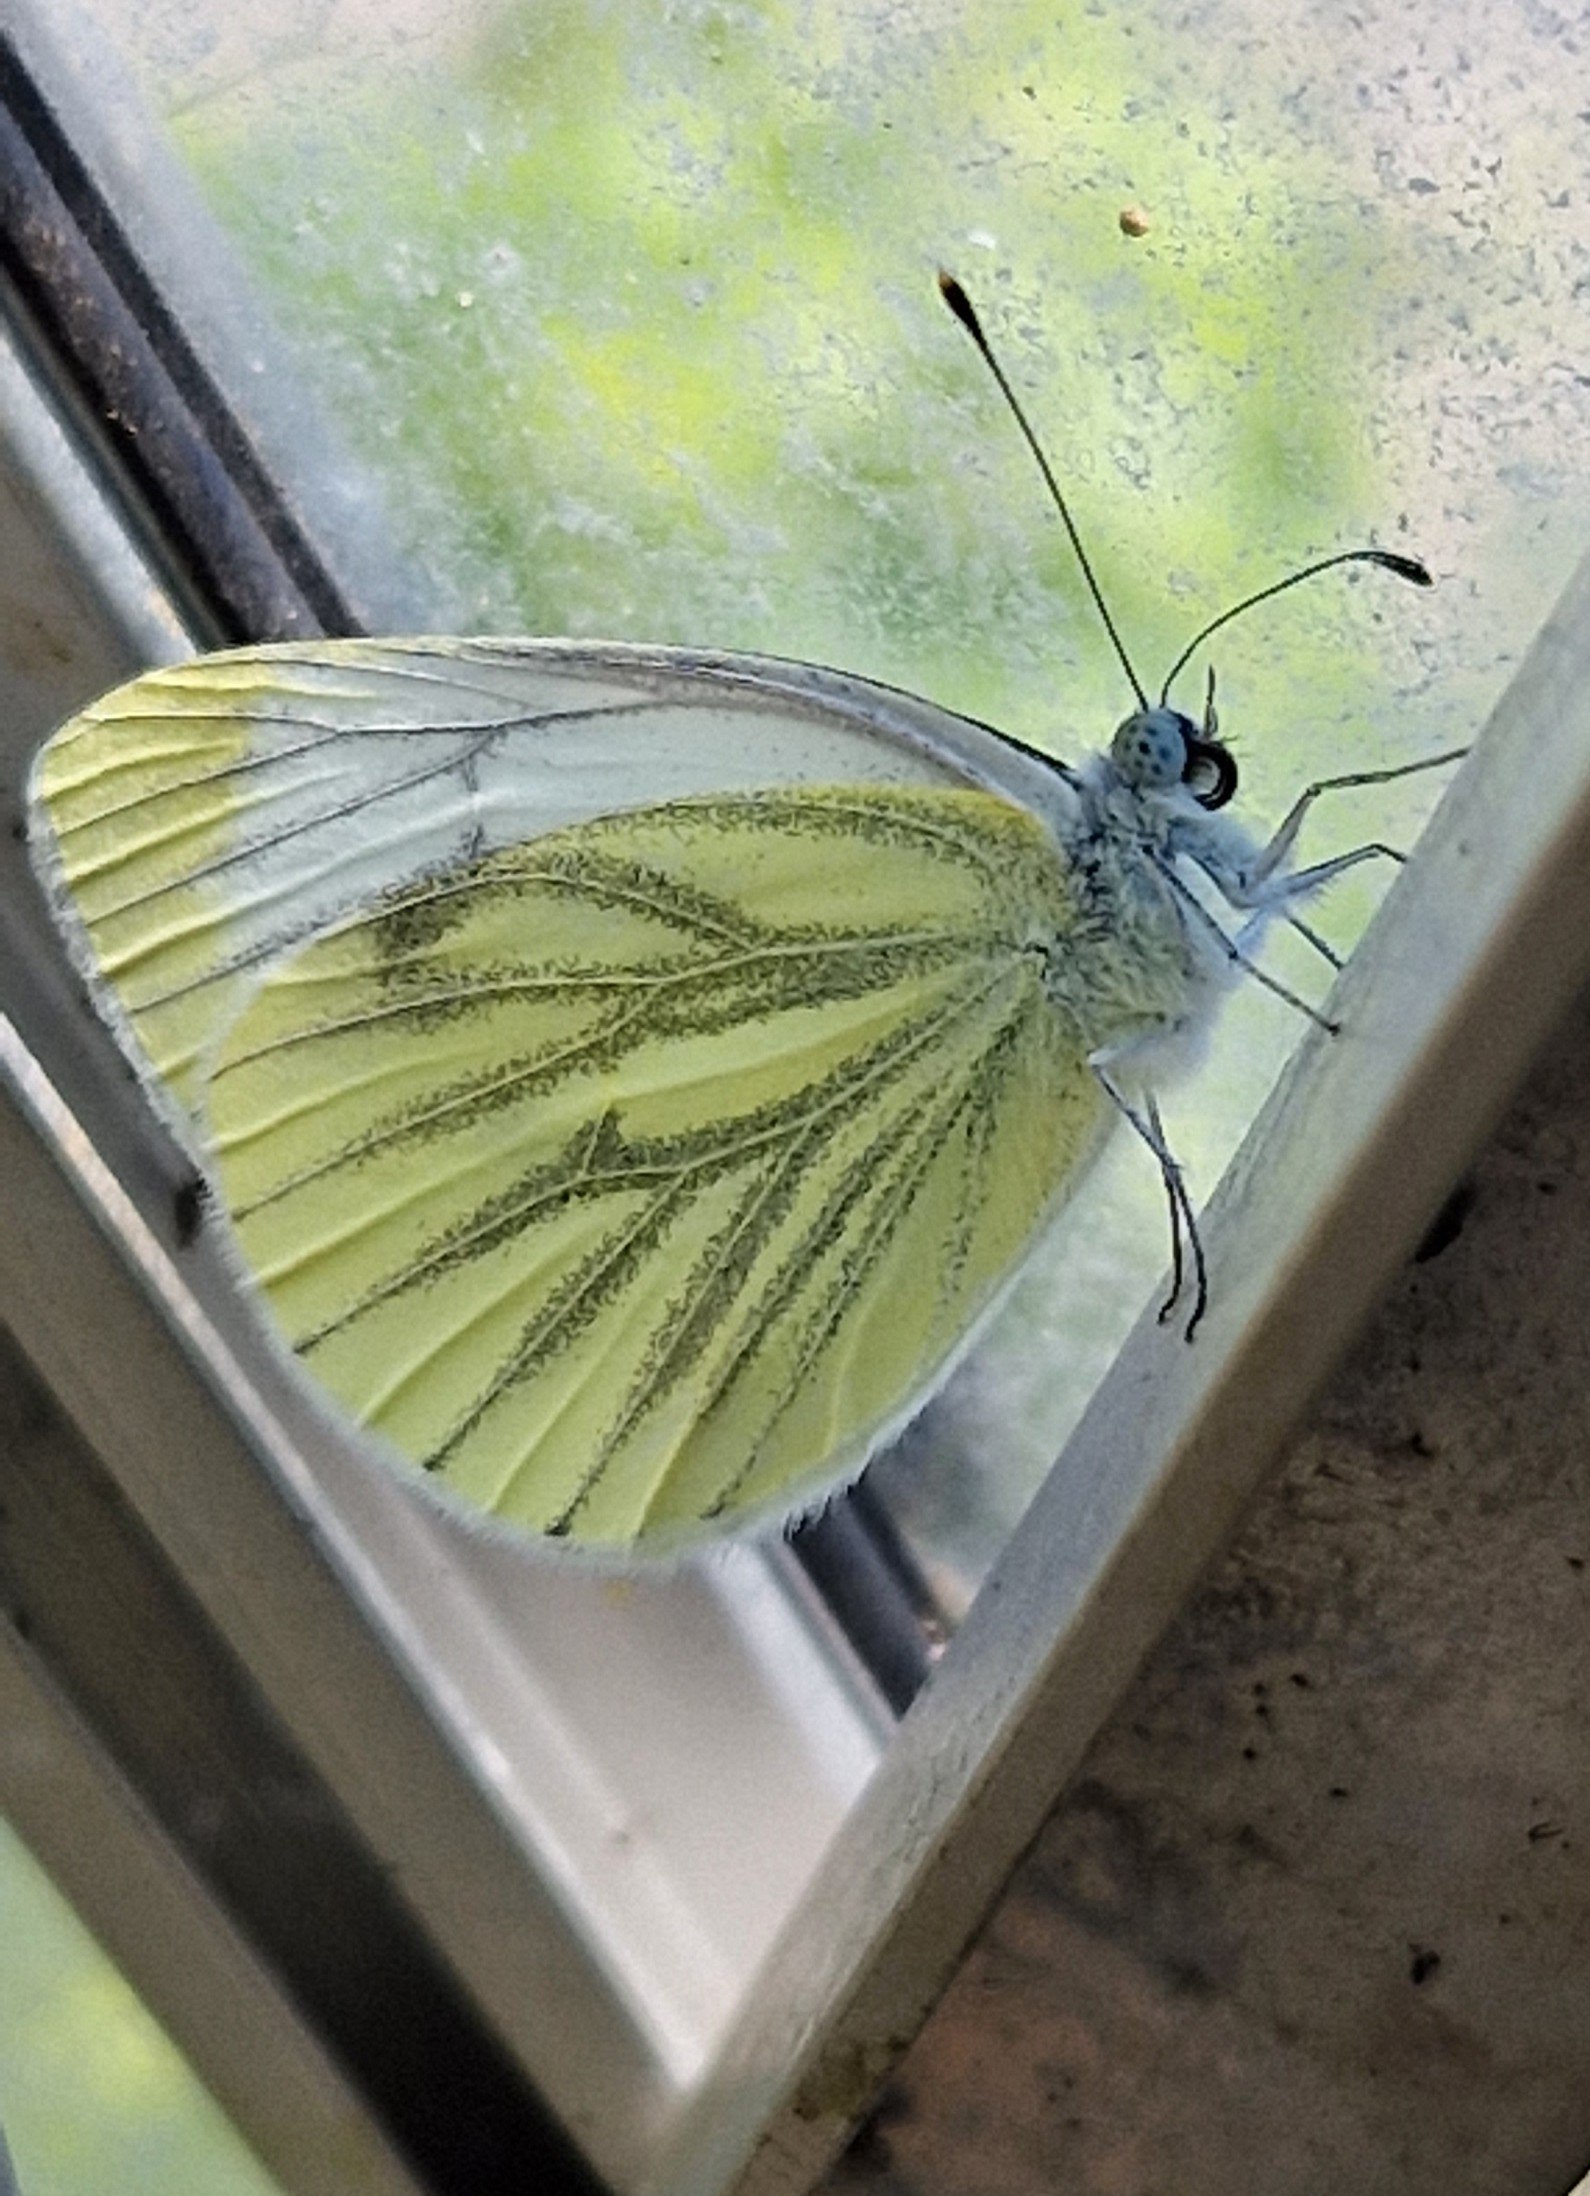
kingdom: Animalia
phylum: Arthropoda
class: Insecta
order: Lepidoptera
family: Pieridae
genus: Pieris
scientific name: Pieris napi
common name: Grønåret kålsommerfugl
